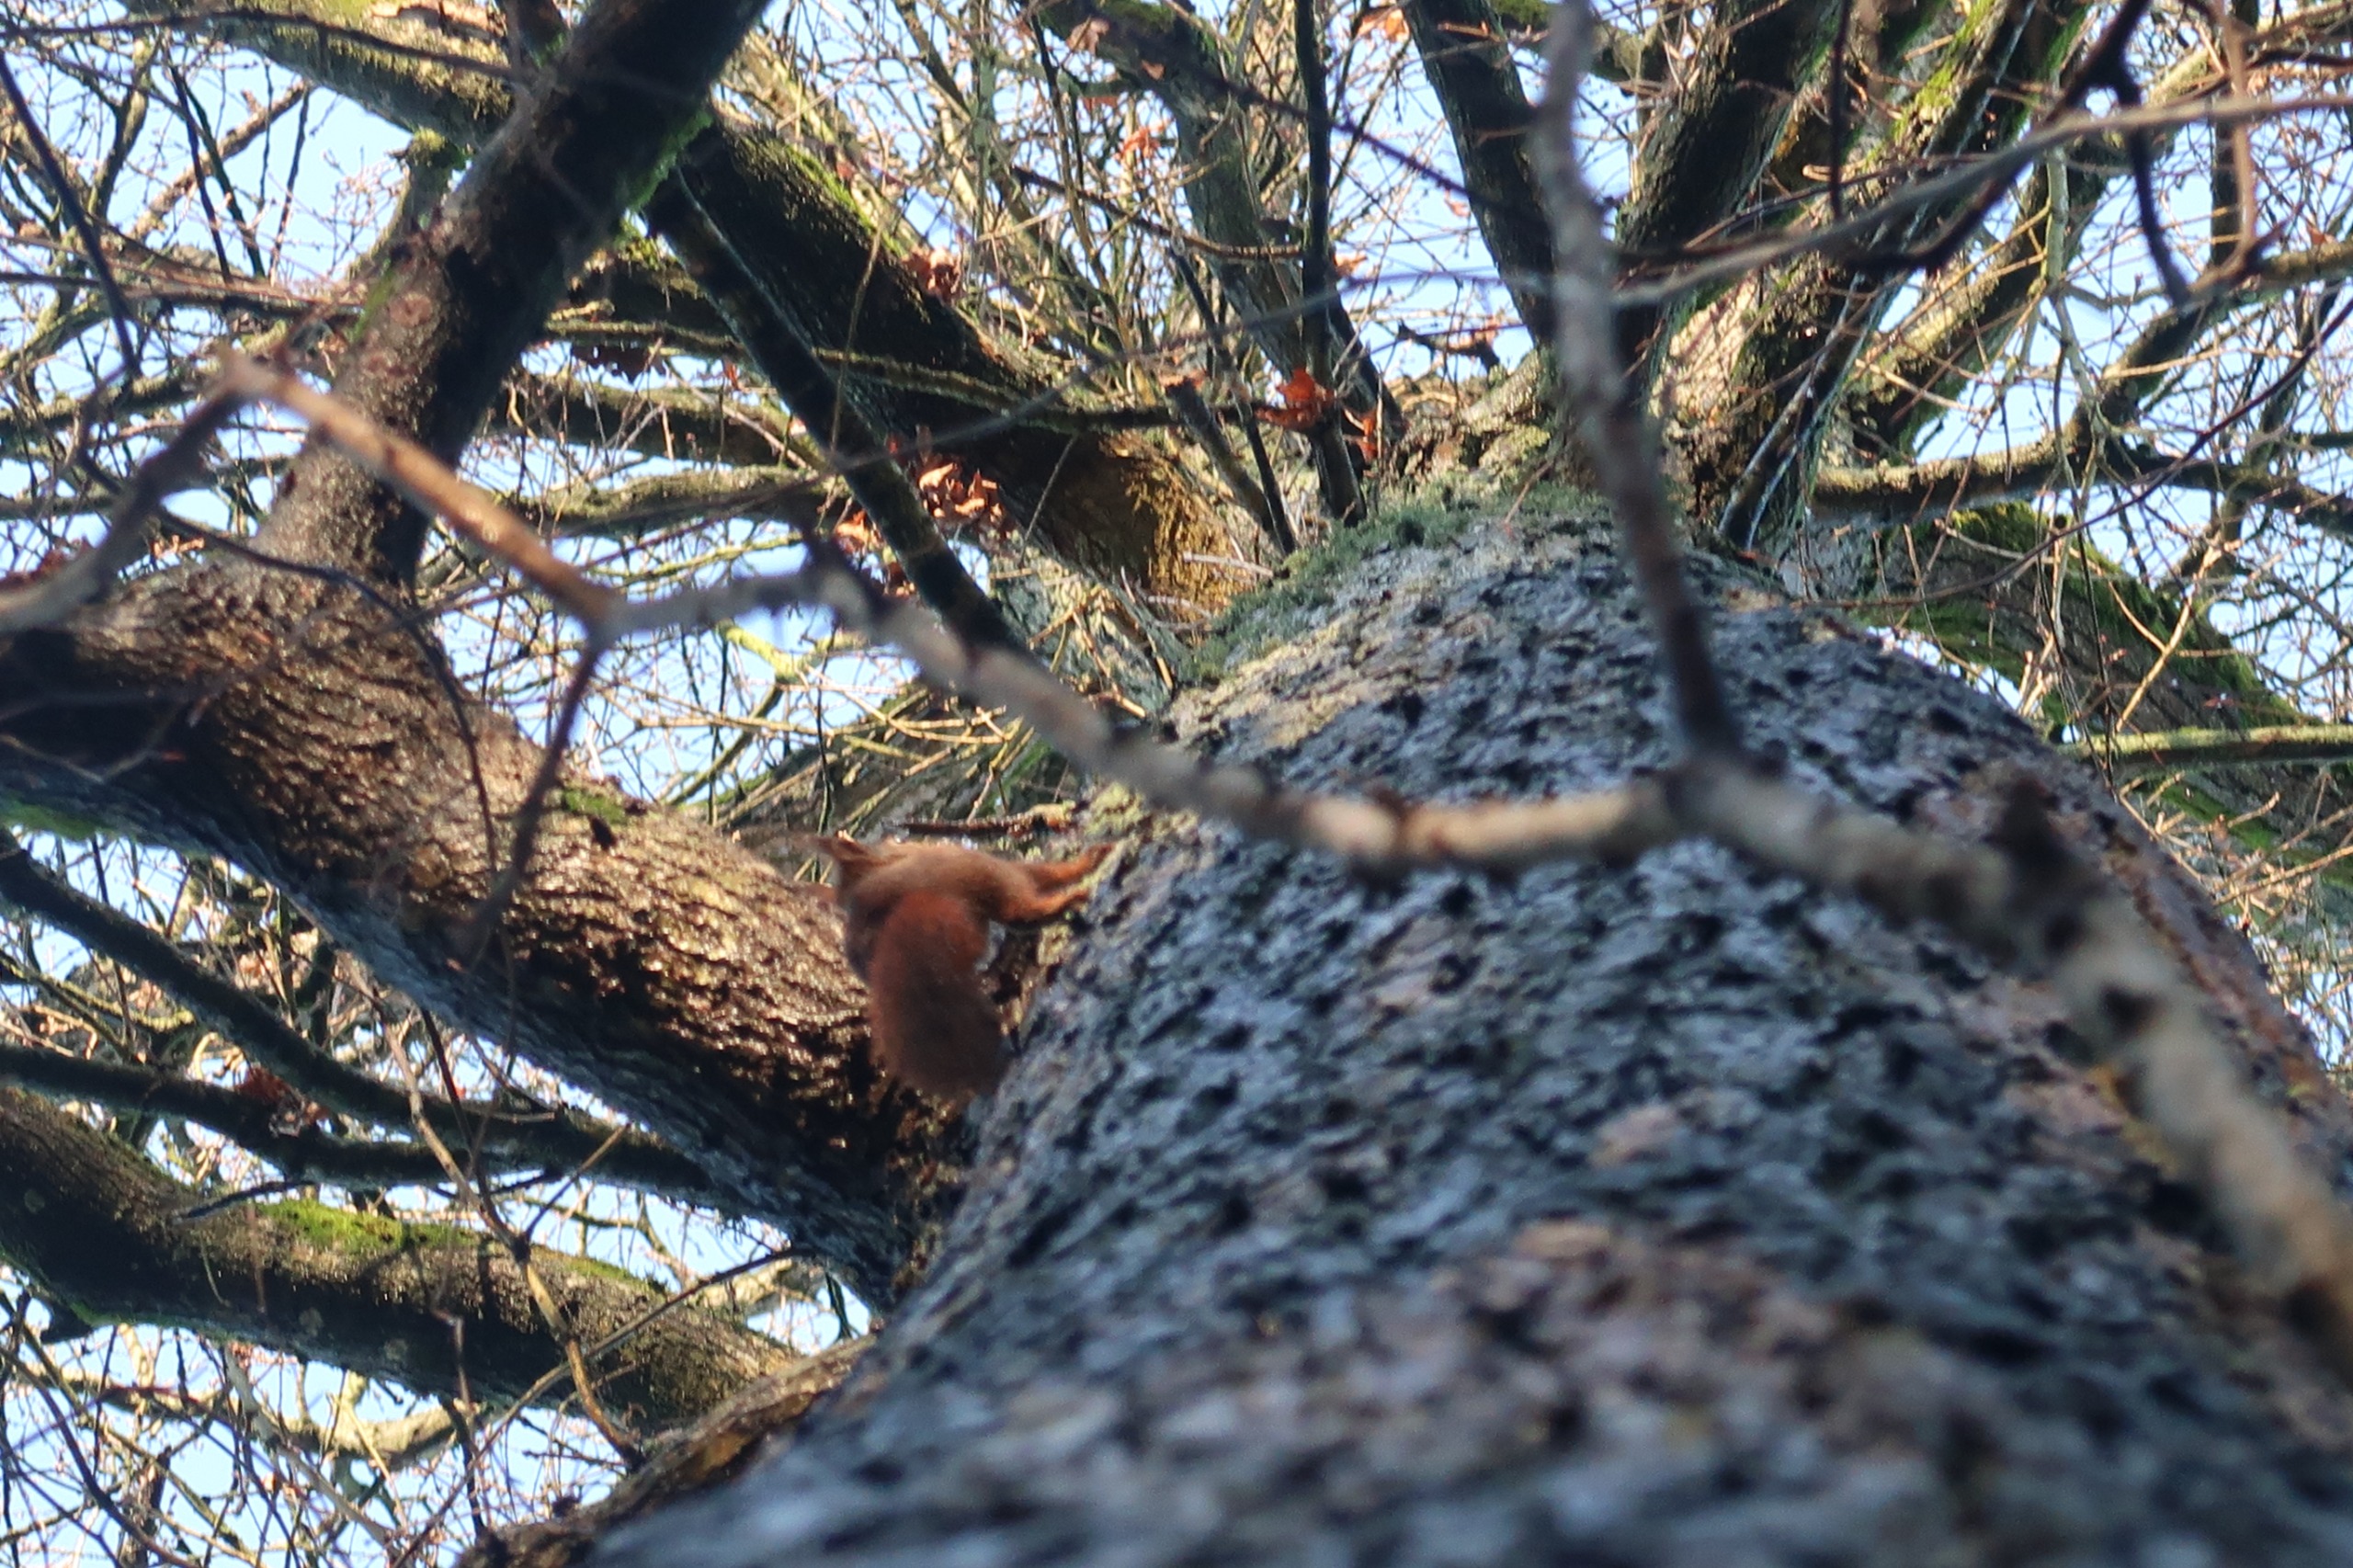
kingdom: Animalia
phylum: Chordata
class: Mammalia
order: Rodentia
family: Sciuridae
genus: Sciurus
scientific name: Sciurus vulgaris
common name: Egern
